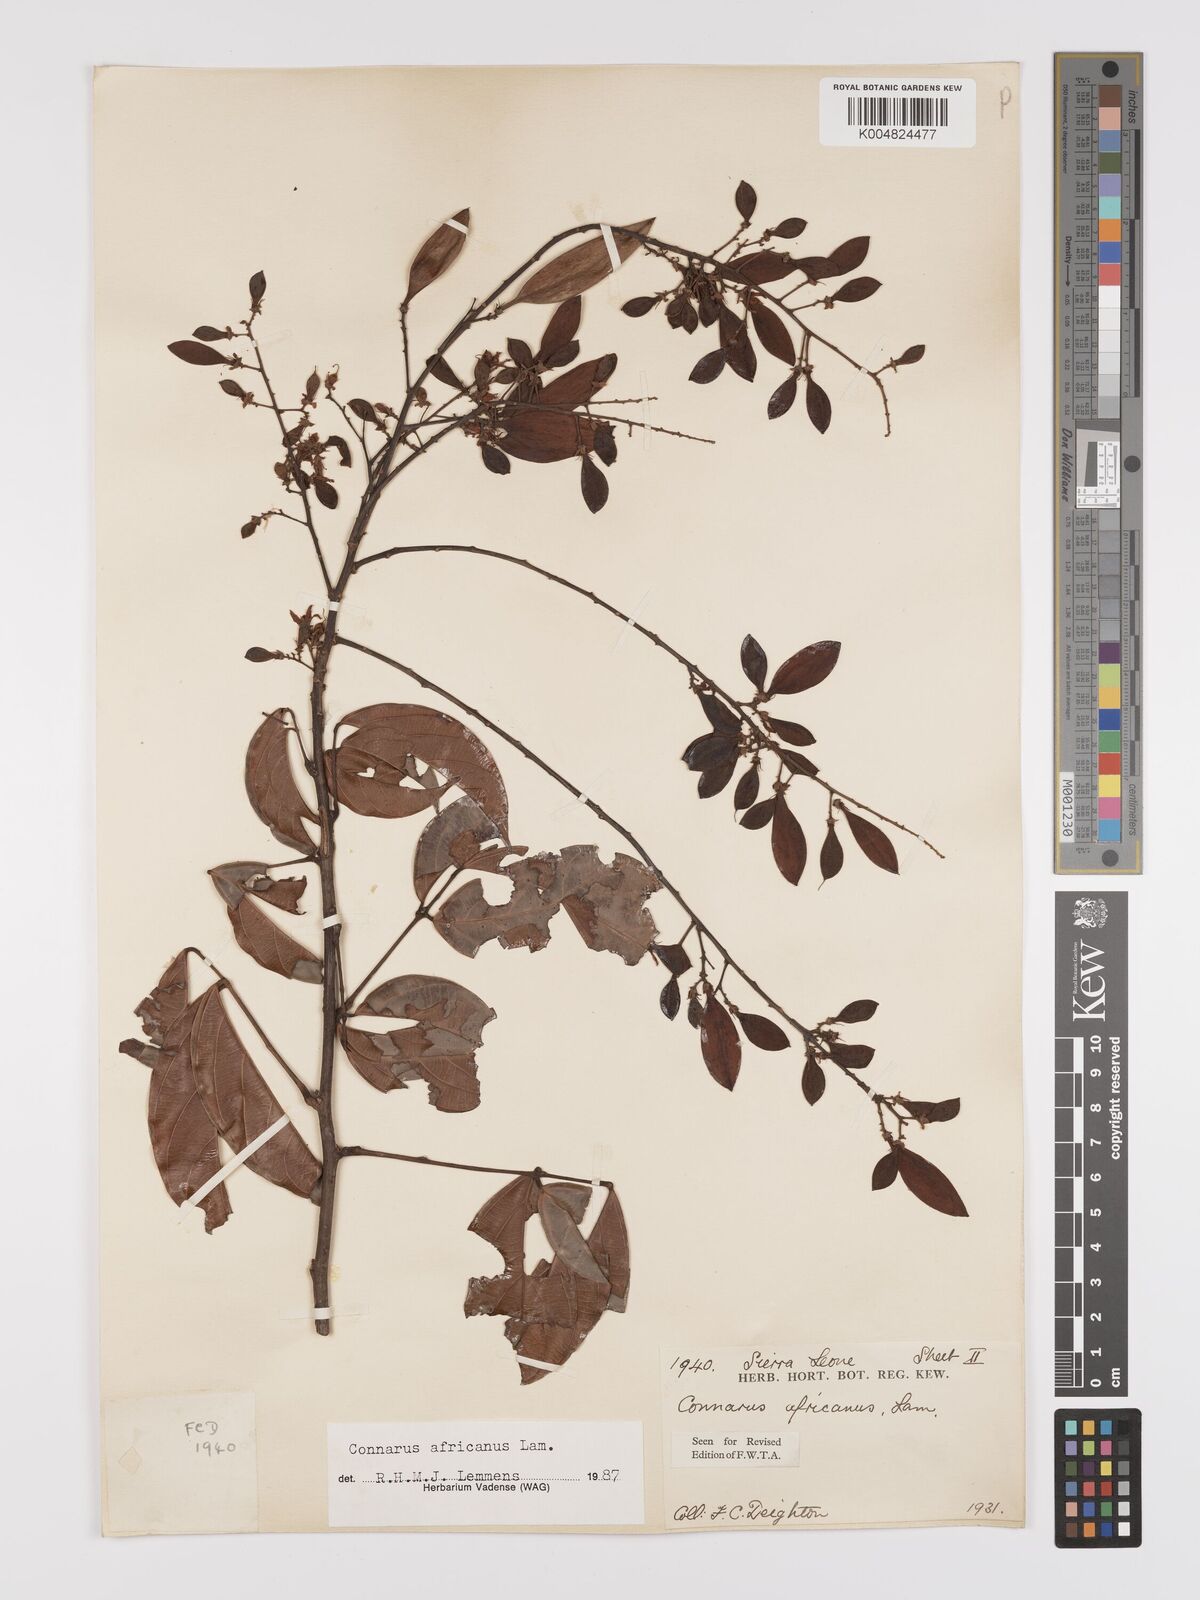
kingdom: Plantae
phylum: Tracheophyta
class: Magnoliopsida
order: Oxalidales
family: Connaraceae
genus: Connarus
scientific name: Connarus africanus
